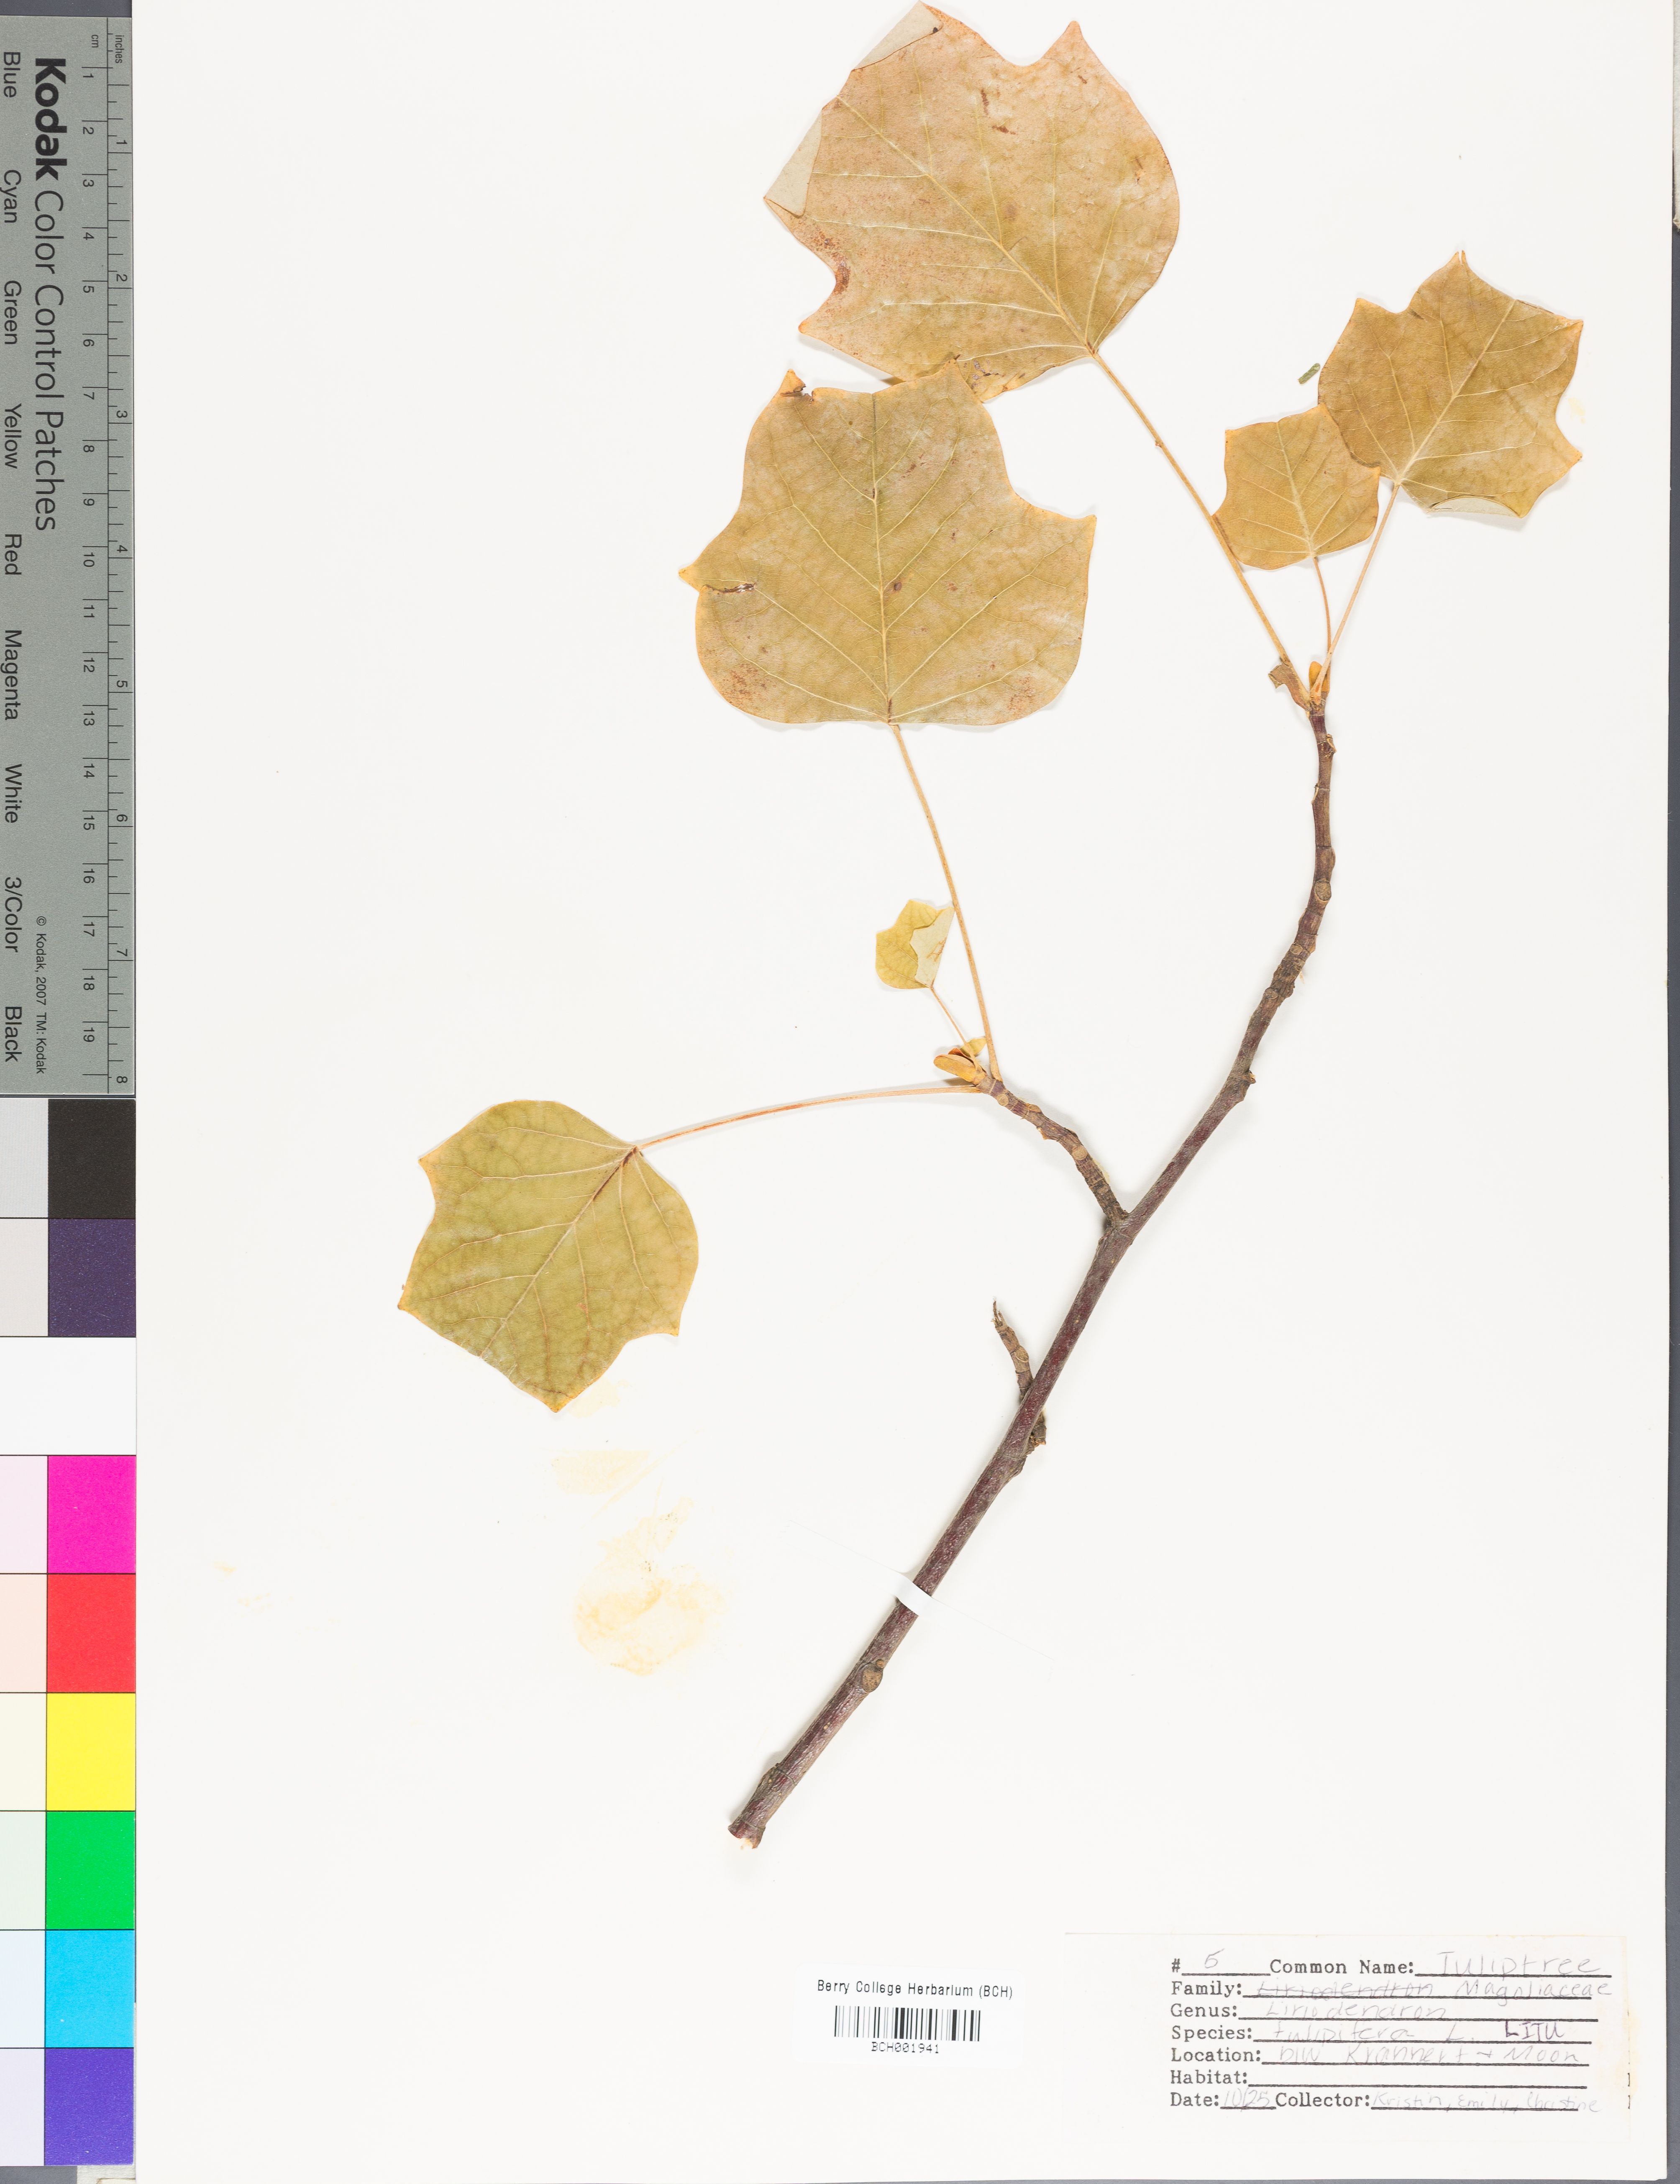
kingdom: Plantae
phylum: Tracheophyta
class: Magnoliopsida
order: Magnoliales
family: Magnoliaceae
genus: Liriodendron
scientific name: Liriodendron tulipifera
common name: Tulip tree
